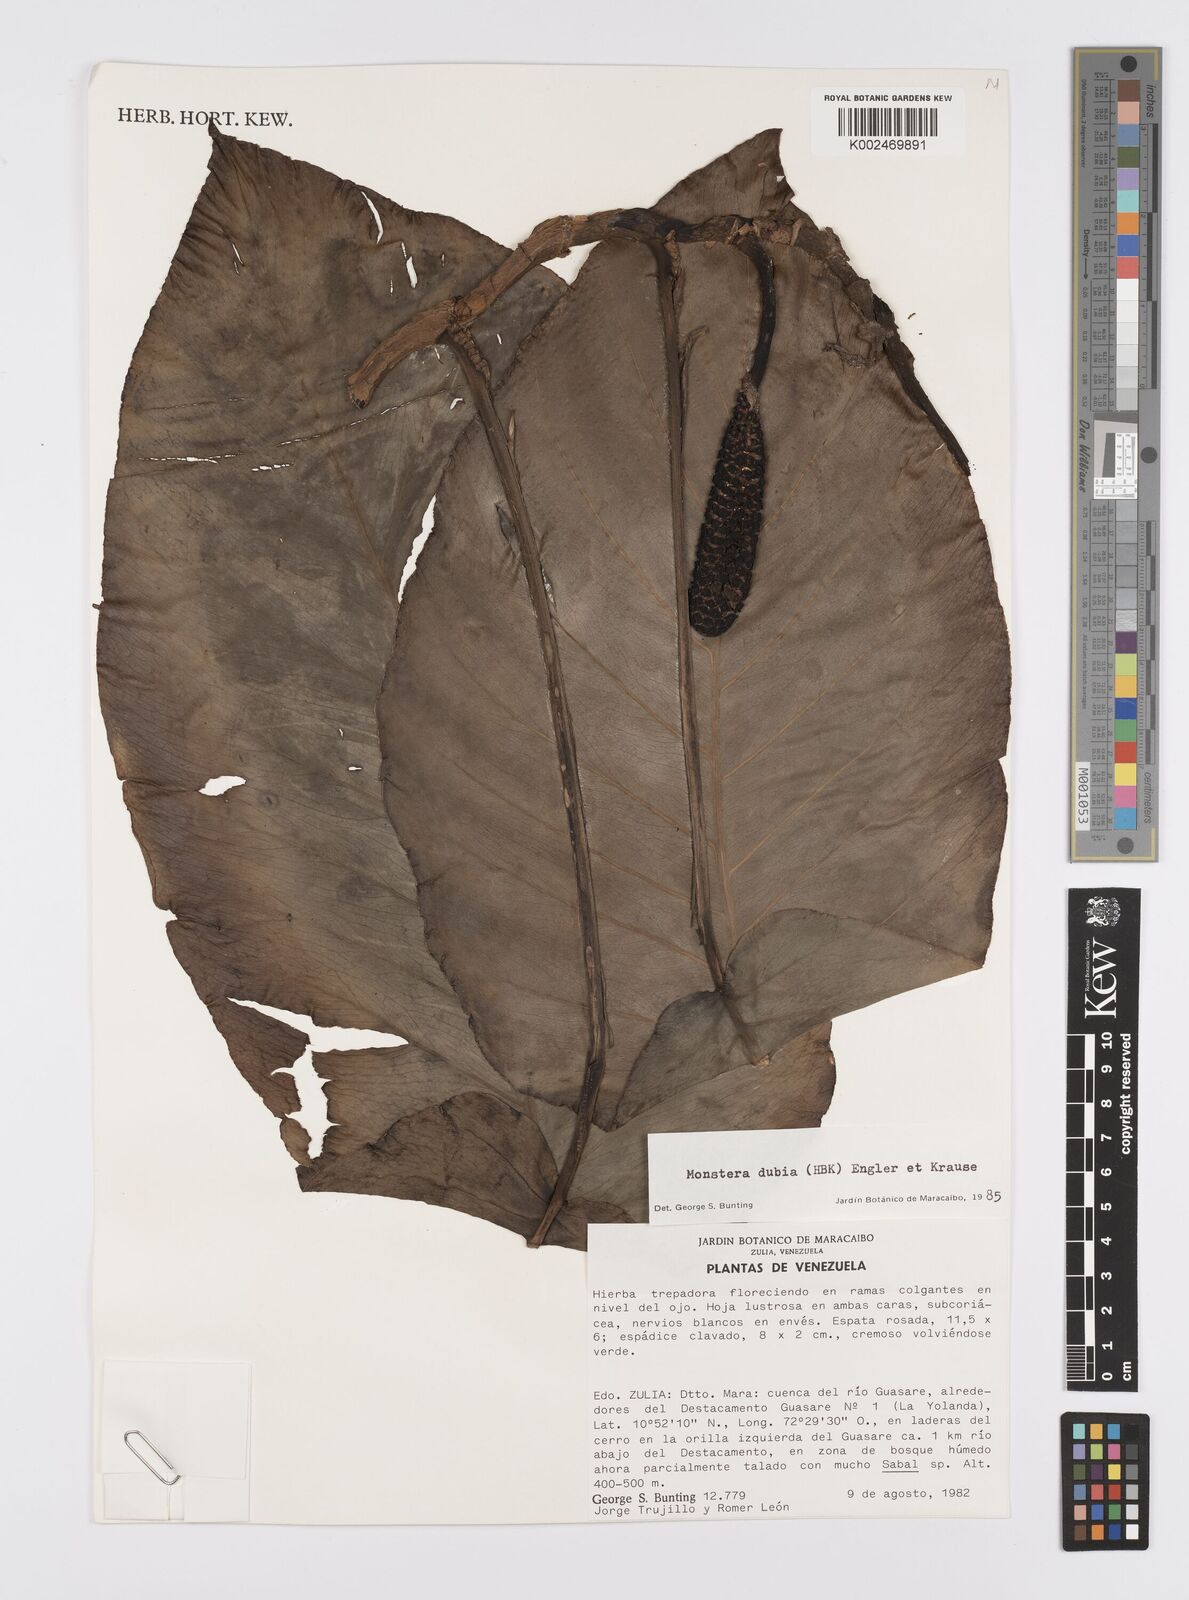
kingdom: Plantae
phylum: Tracheophyta
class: Liliopsida
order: Alismatales
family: Araceae
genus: Monstera
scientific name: Monstera dubia
